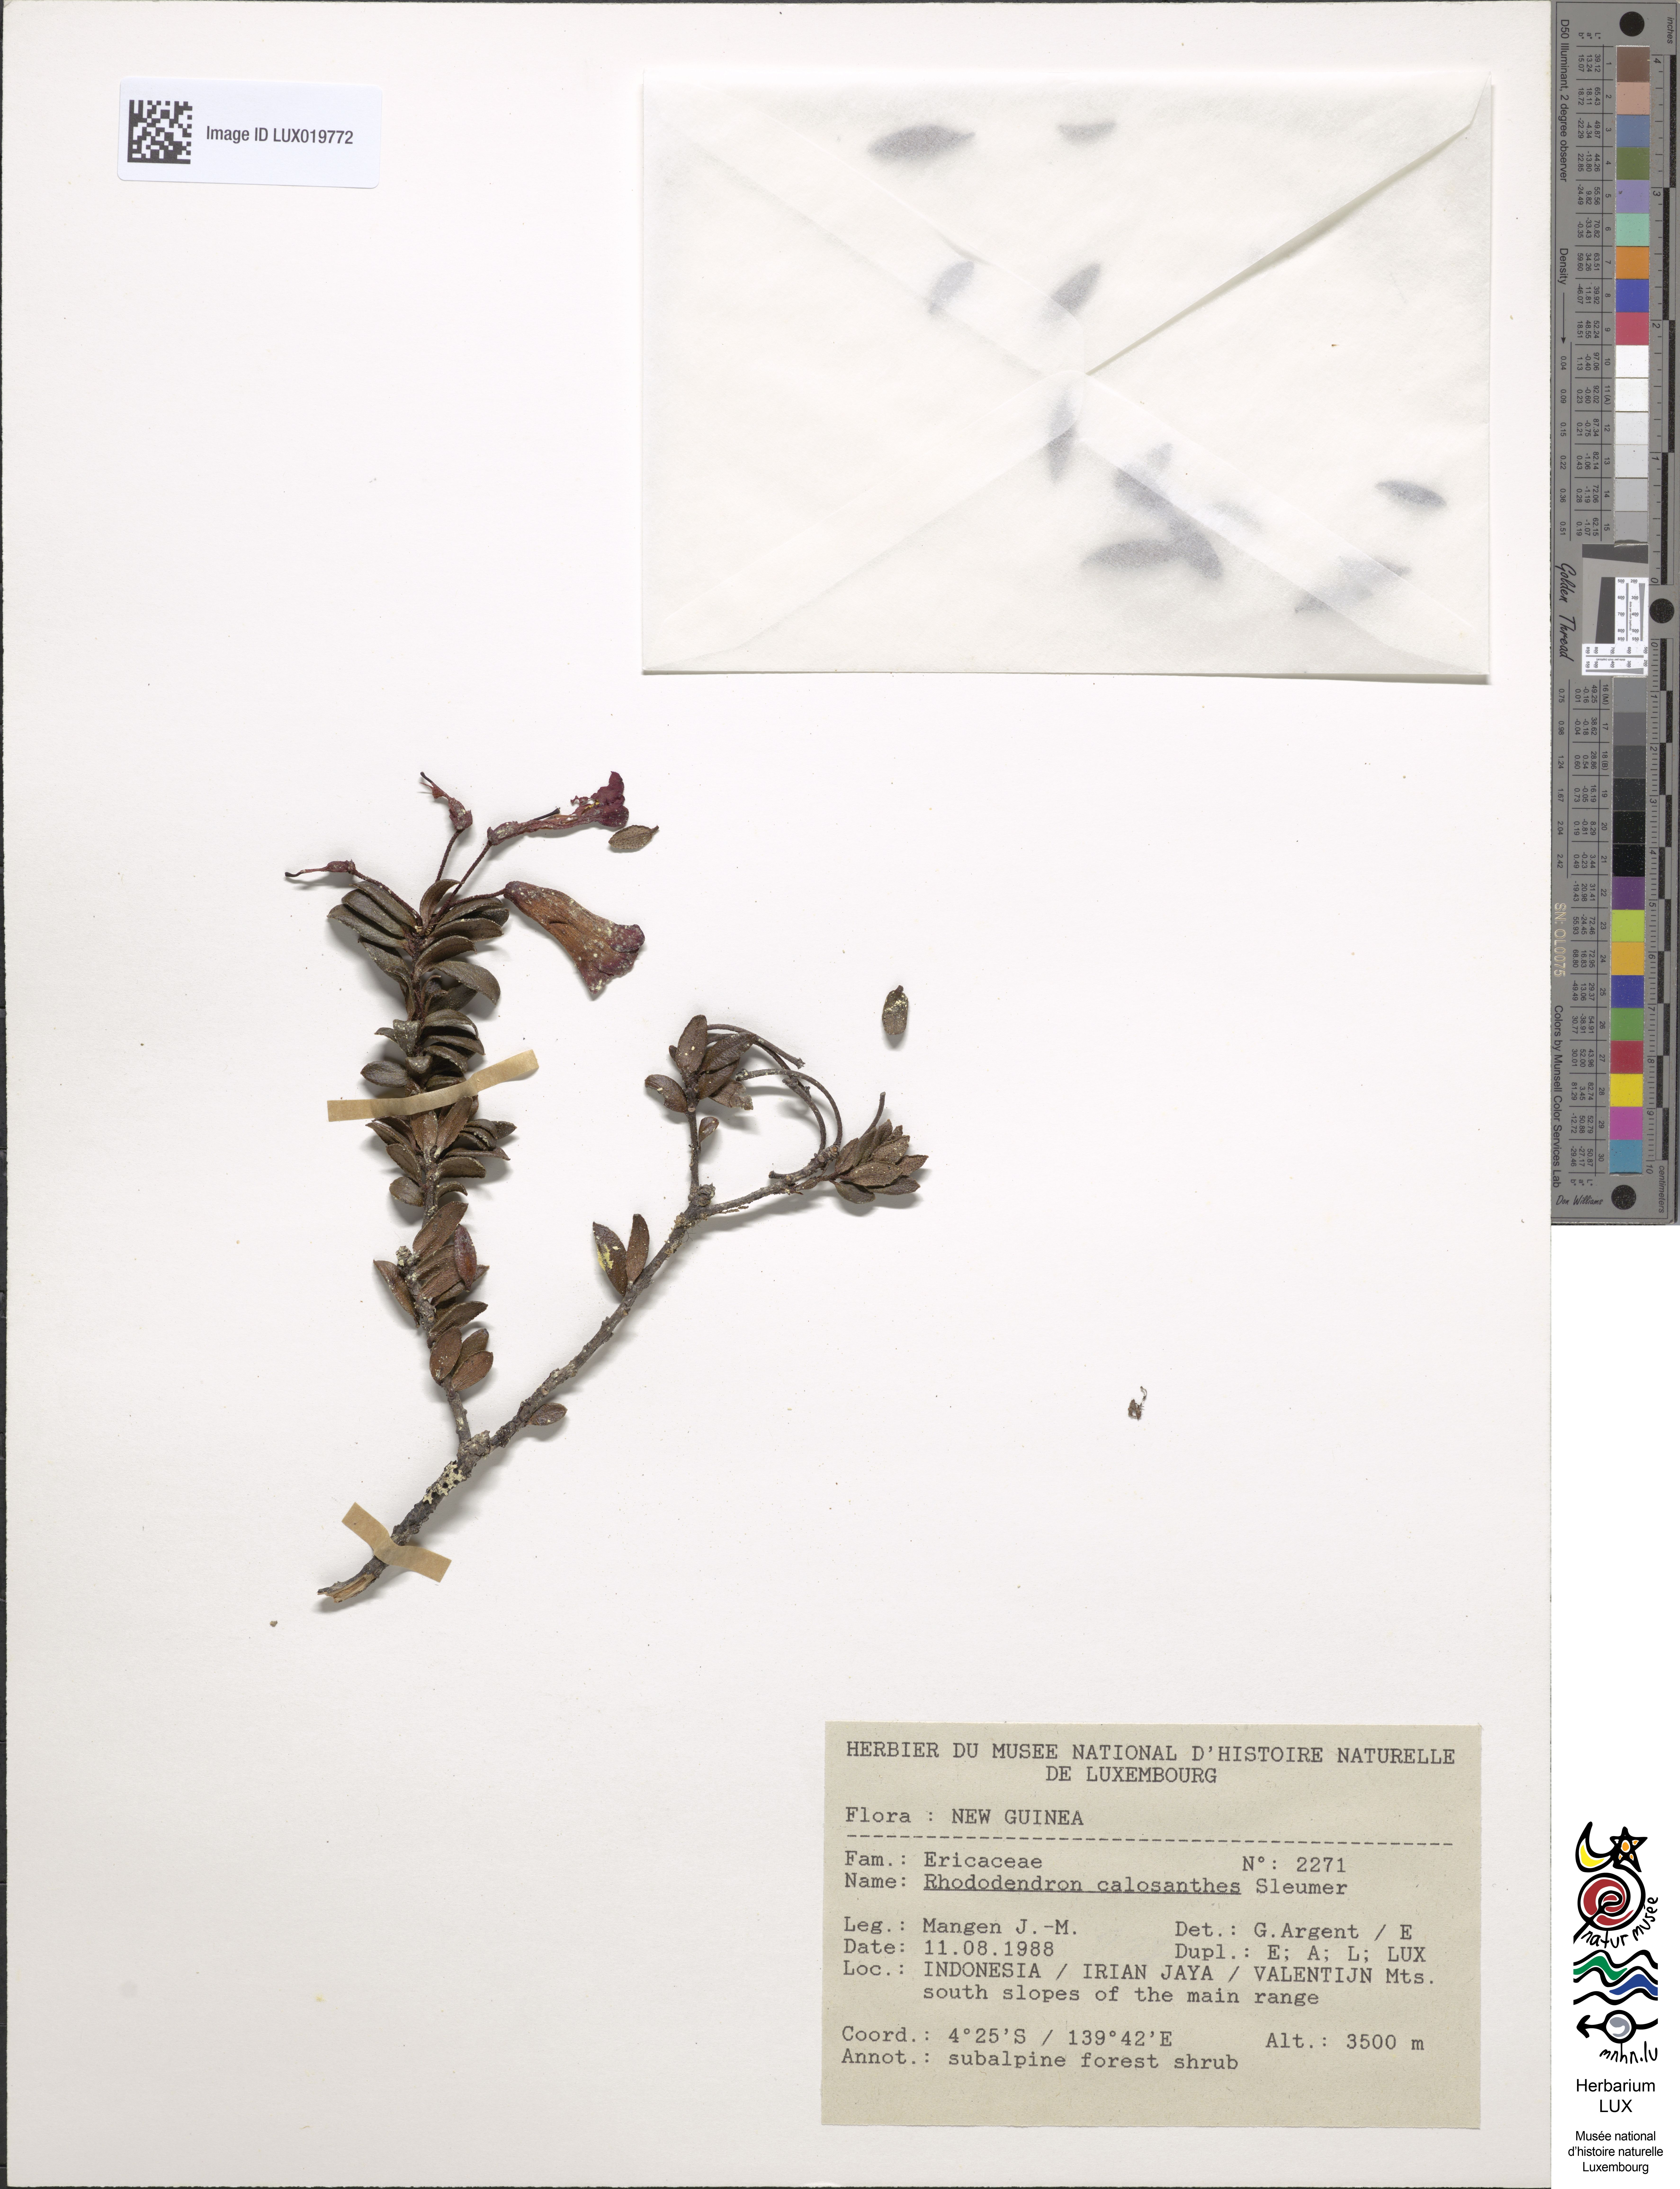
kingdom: Plantae
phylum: Tracheophyta
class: Magnoliopsida
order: Ericales
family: Ericaceae
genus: Rhododendron
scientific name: Rhododendron calosanthes
